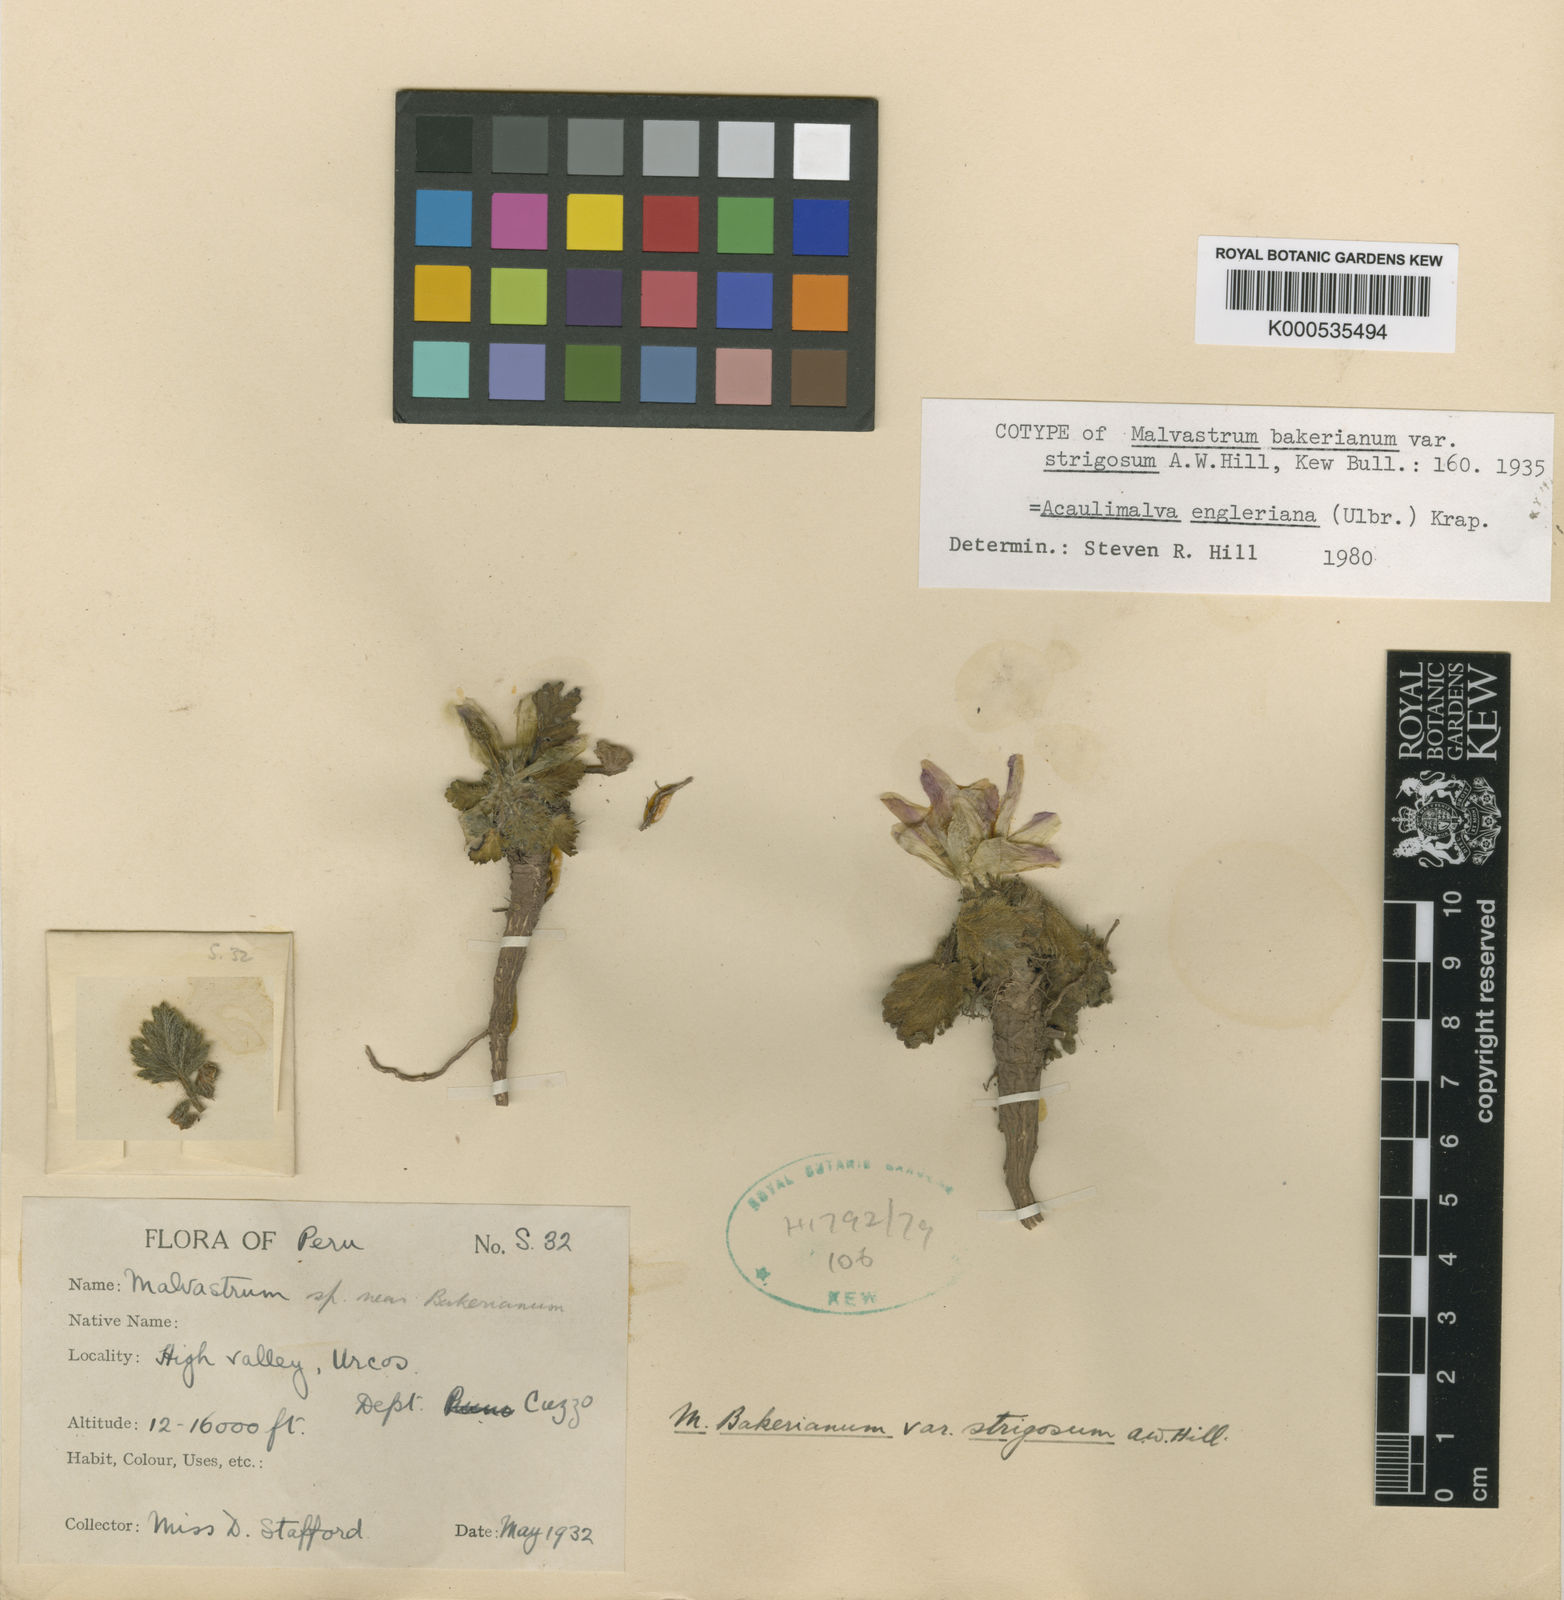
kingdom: Plantae
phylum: Tracheophyta
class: Magnoliopsida
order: Malvales
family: Malvaceae
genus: Acaulimalva
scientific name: Acaulimalva engleriana
